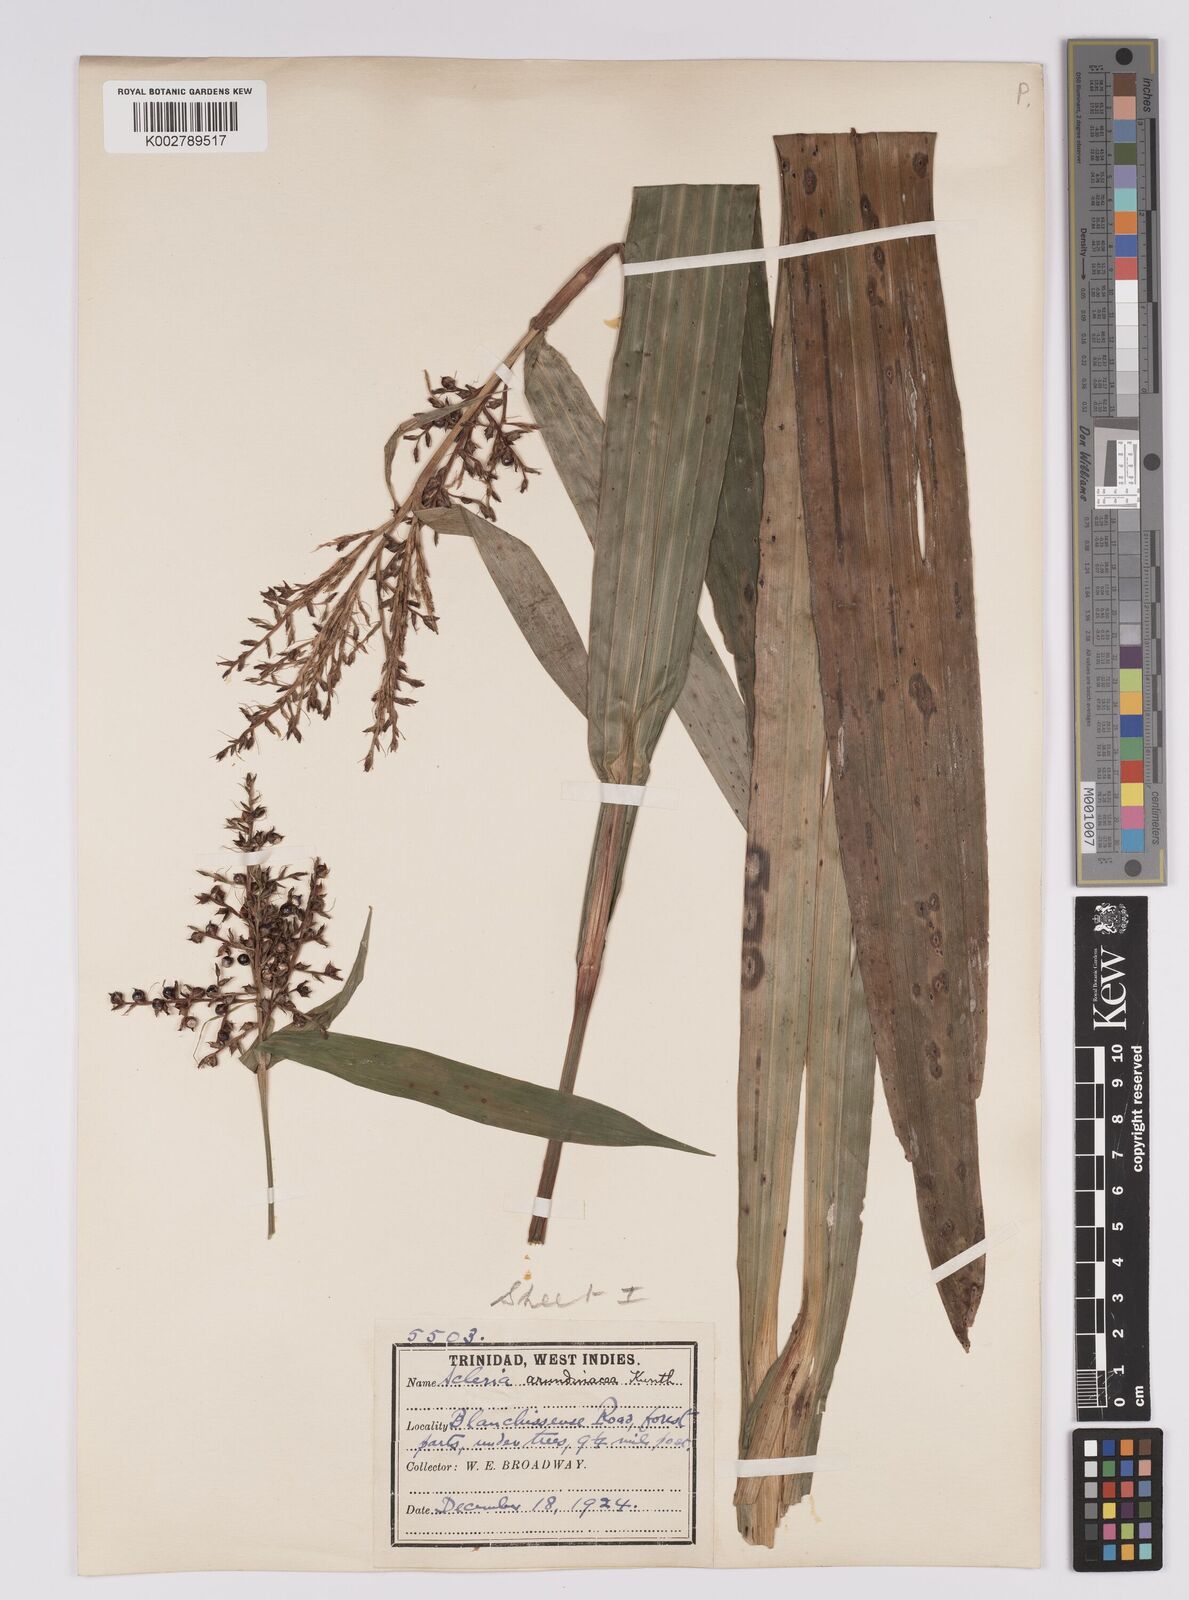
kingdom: Plantae
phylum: Tracheophyta
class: Liliopsida
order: Poales
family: Cyperaceae
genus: Scleria
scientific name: Scleria latifolia
